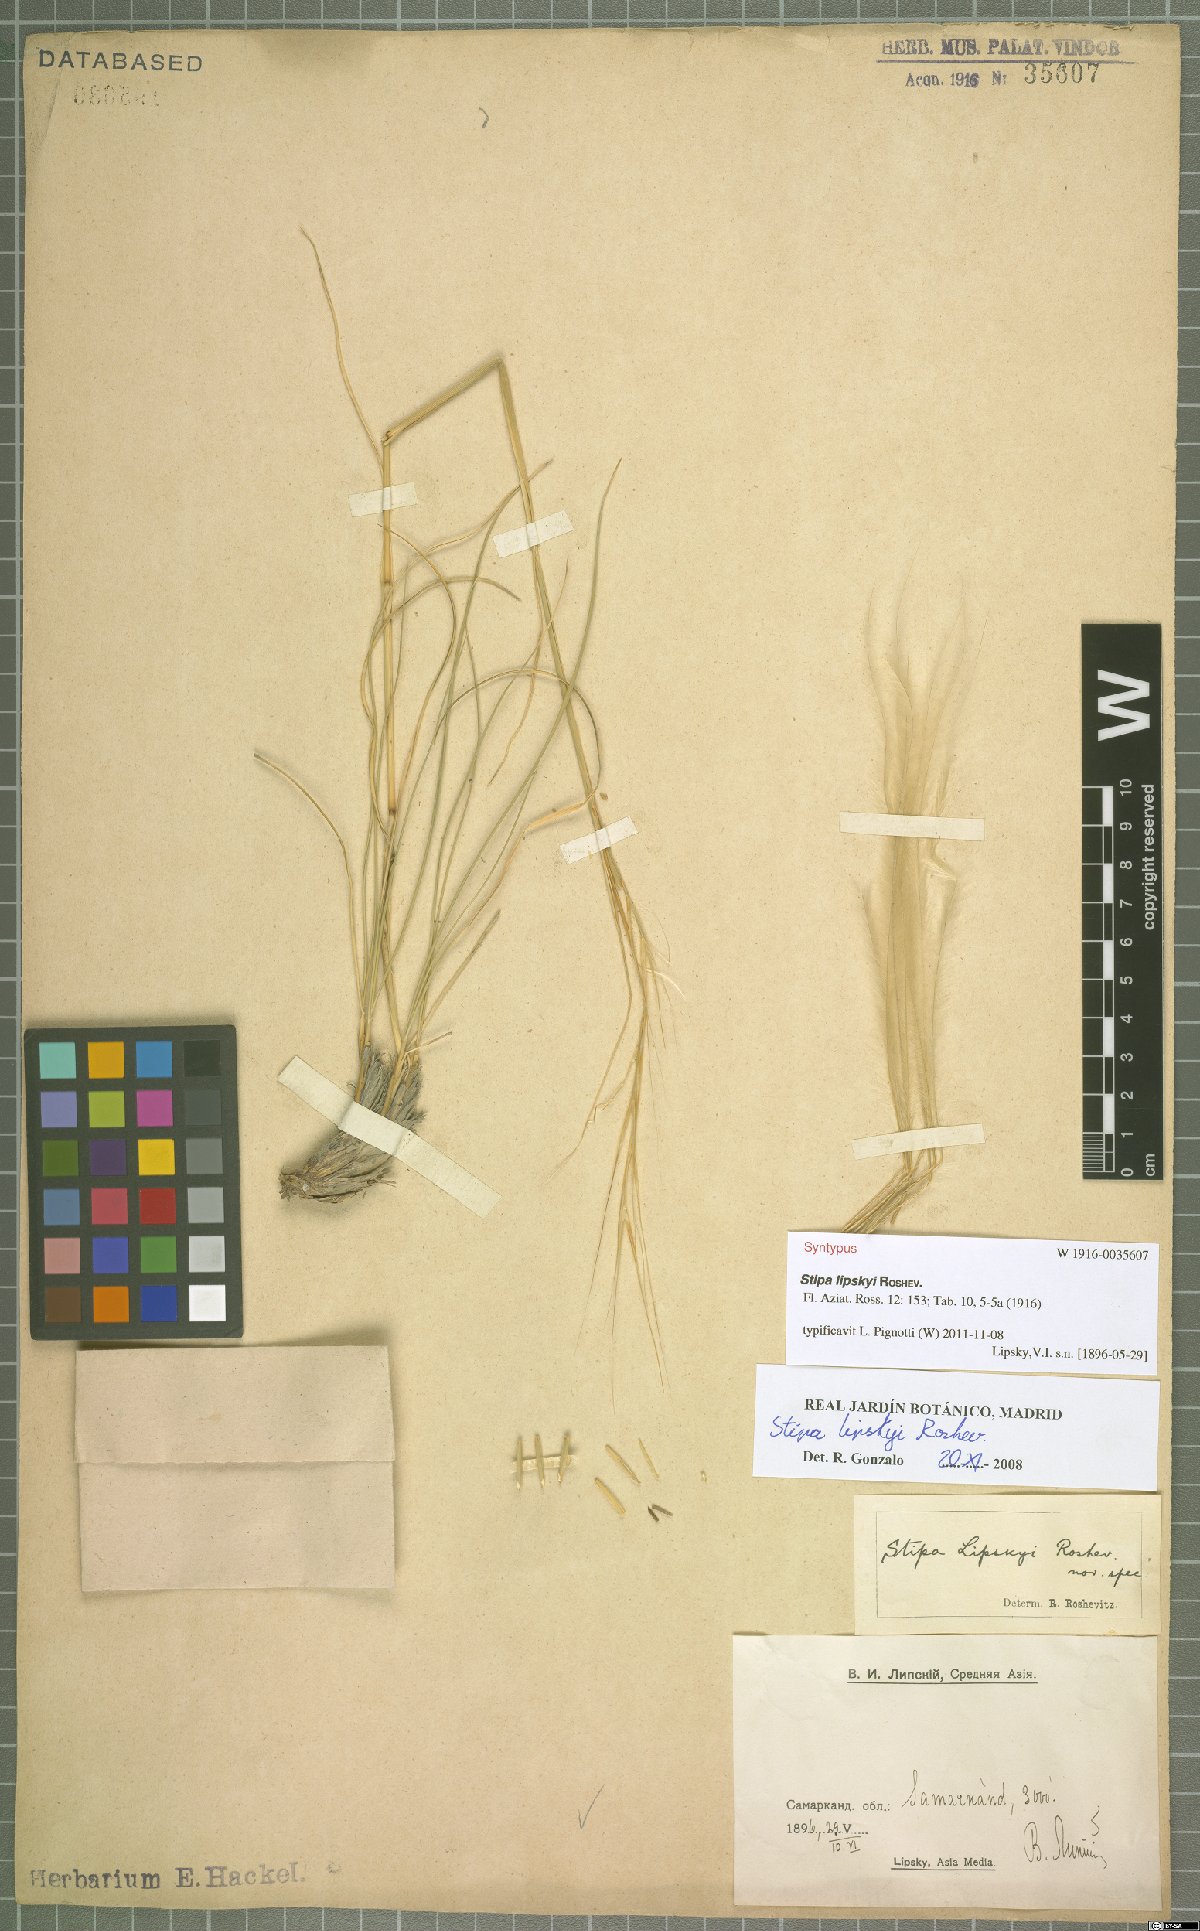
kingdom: Plantae
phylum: Tracheophyta
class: Liliopsida
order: Poales
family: Poaceae
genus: Stipa
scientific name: Stipa lipskyi
